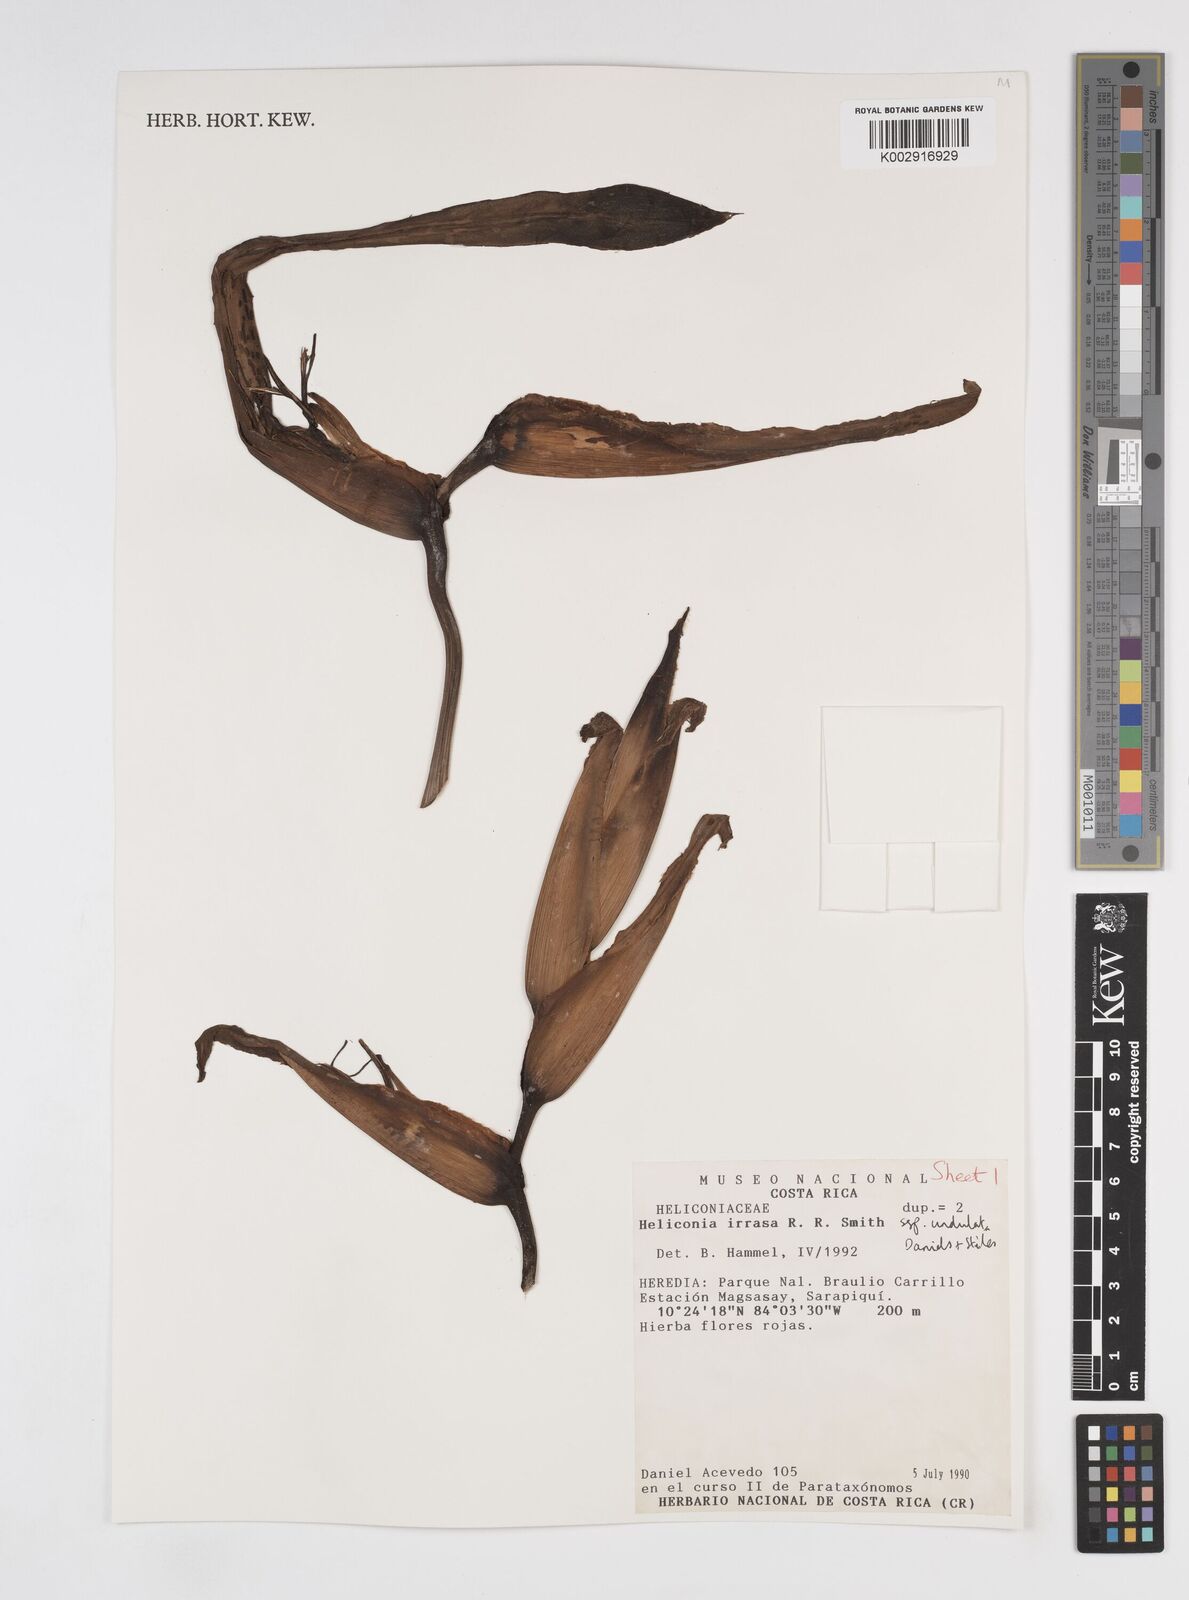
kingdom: Plantae
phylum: Tracheophyta
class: Liliopsida
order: Zingiberales
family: Heliconiaceae
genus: Heliconia
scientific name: Heliconia irrasa
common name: Wild plantain
